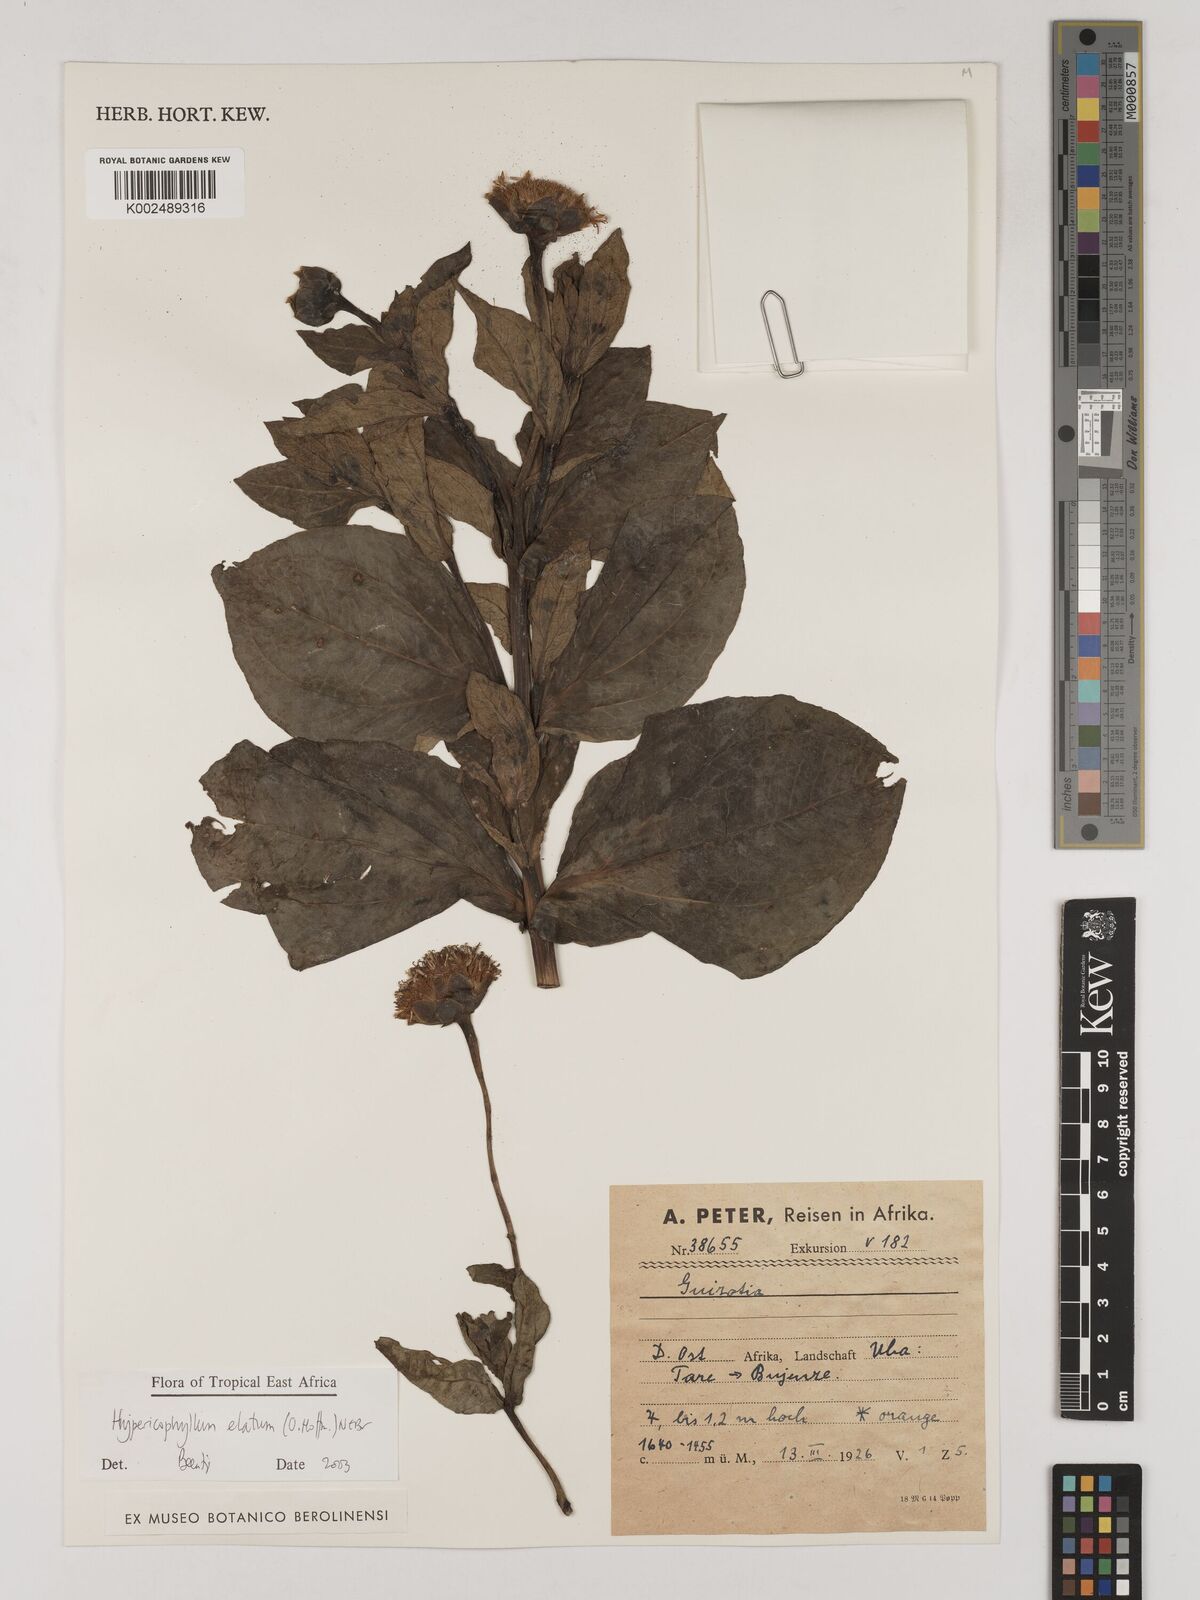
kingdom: Plantae
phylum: Tracheophyta
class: Magnoliopsida
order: Asterales
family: Asteraceae
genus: Hypericophyllum
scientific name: Hypericophyllum elatum
